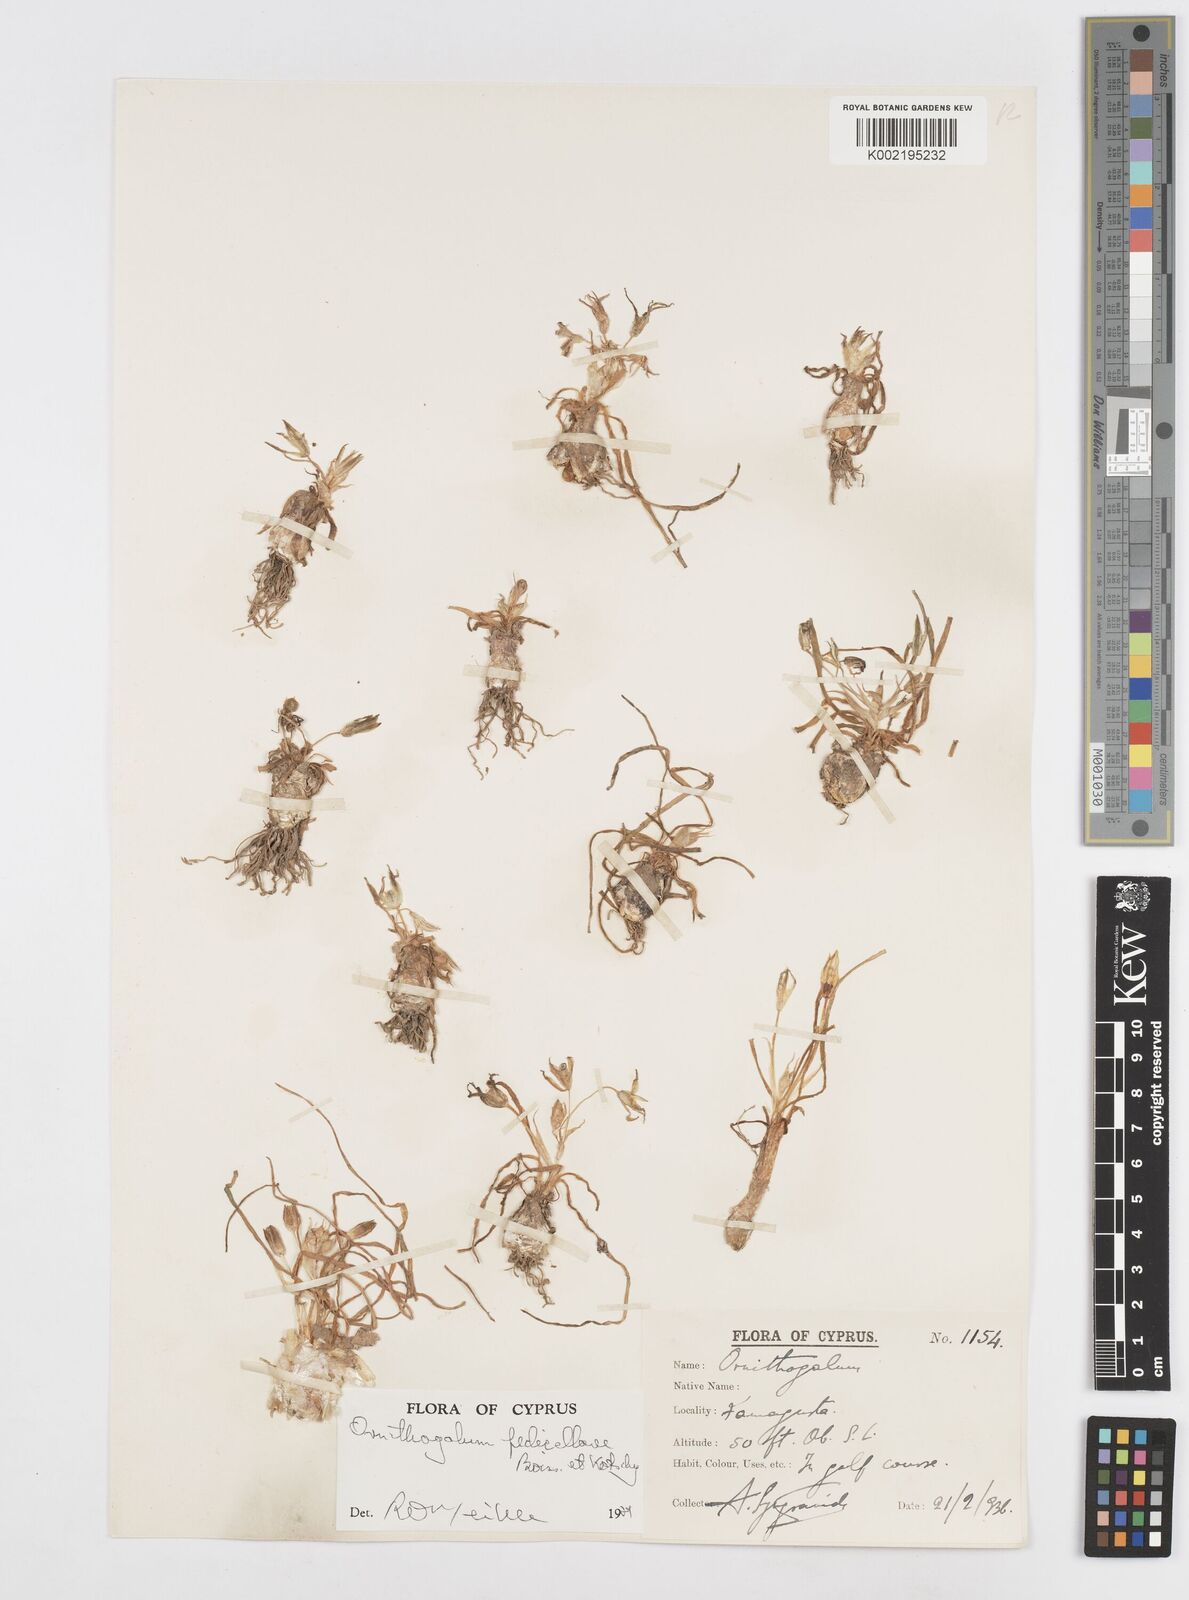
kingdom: Plantae
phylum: Tracheophyta
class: Liliopsida
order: Asparagales
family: Asparagaceae
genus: Ornithogalum
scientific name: Ornithogalum
